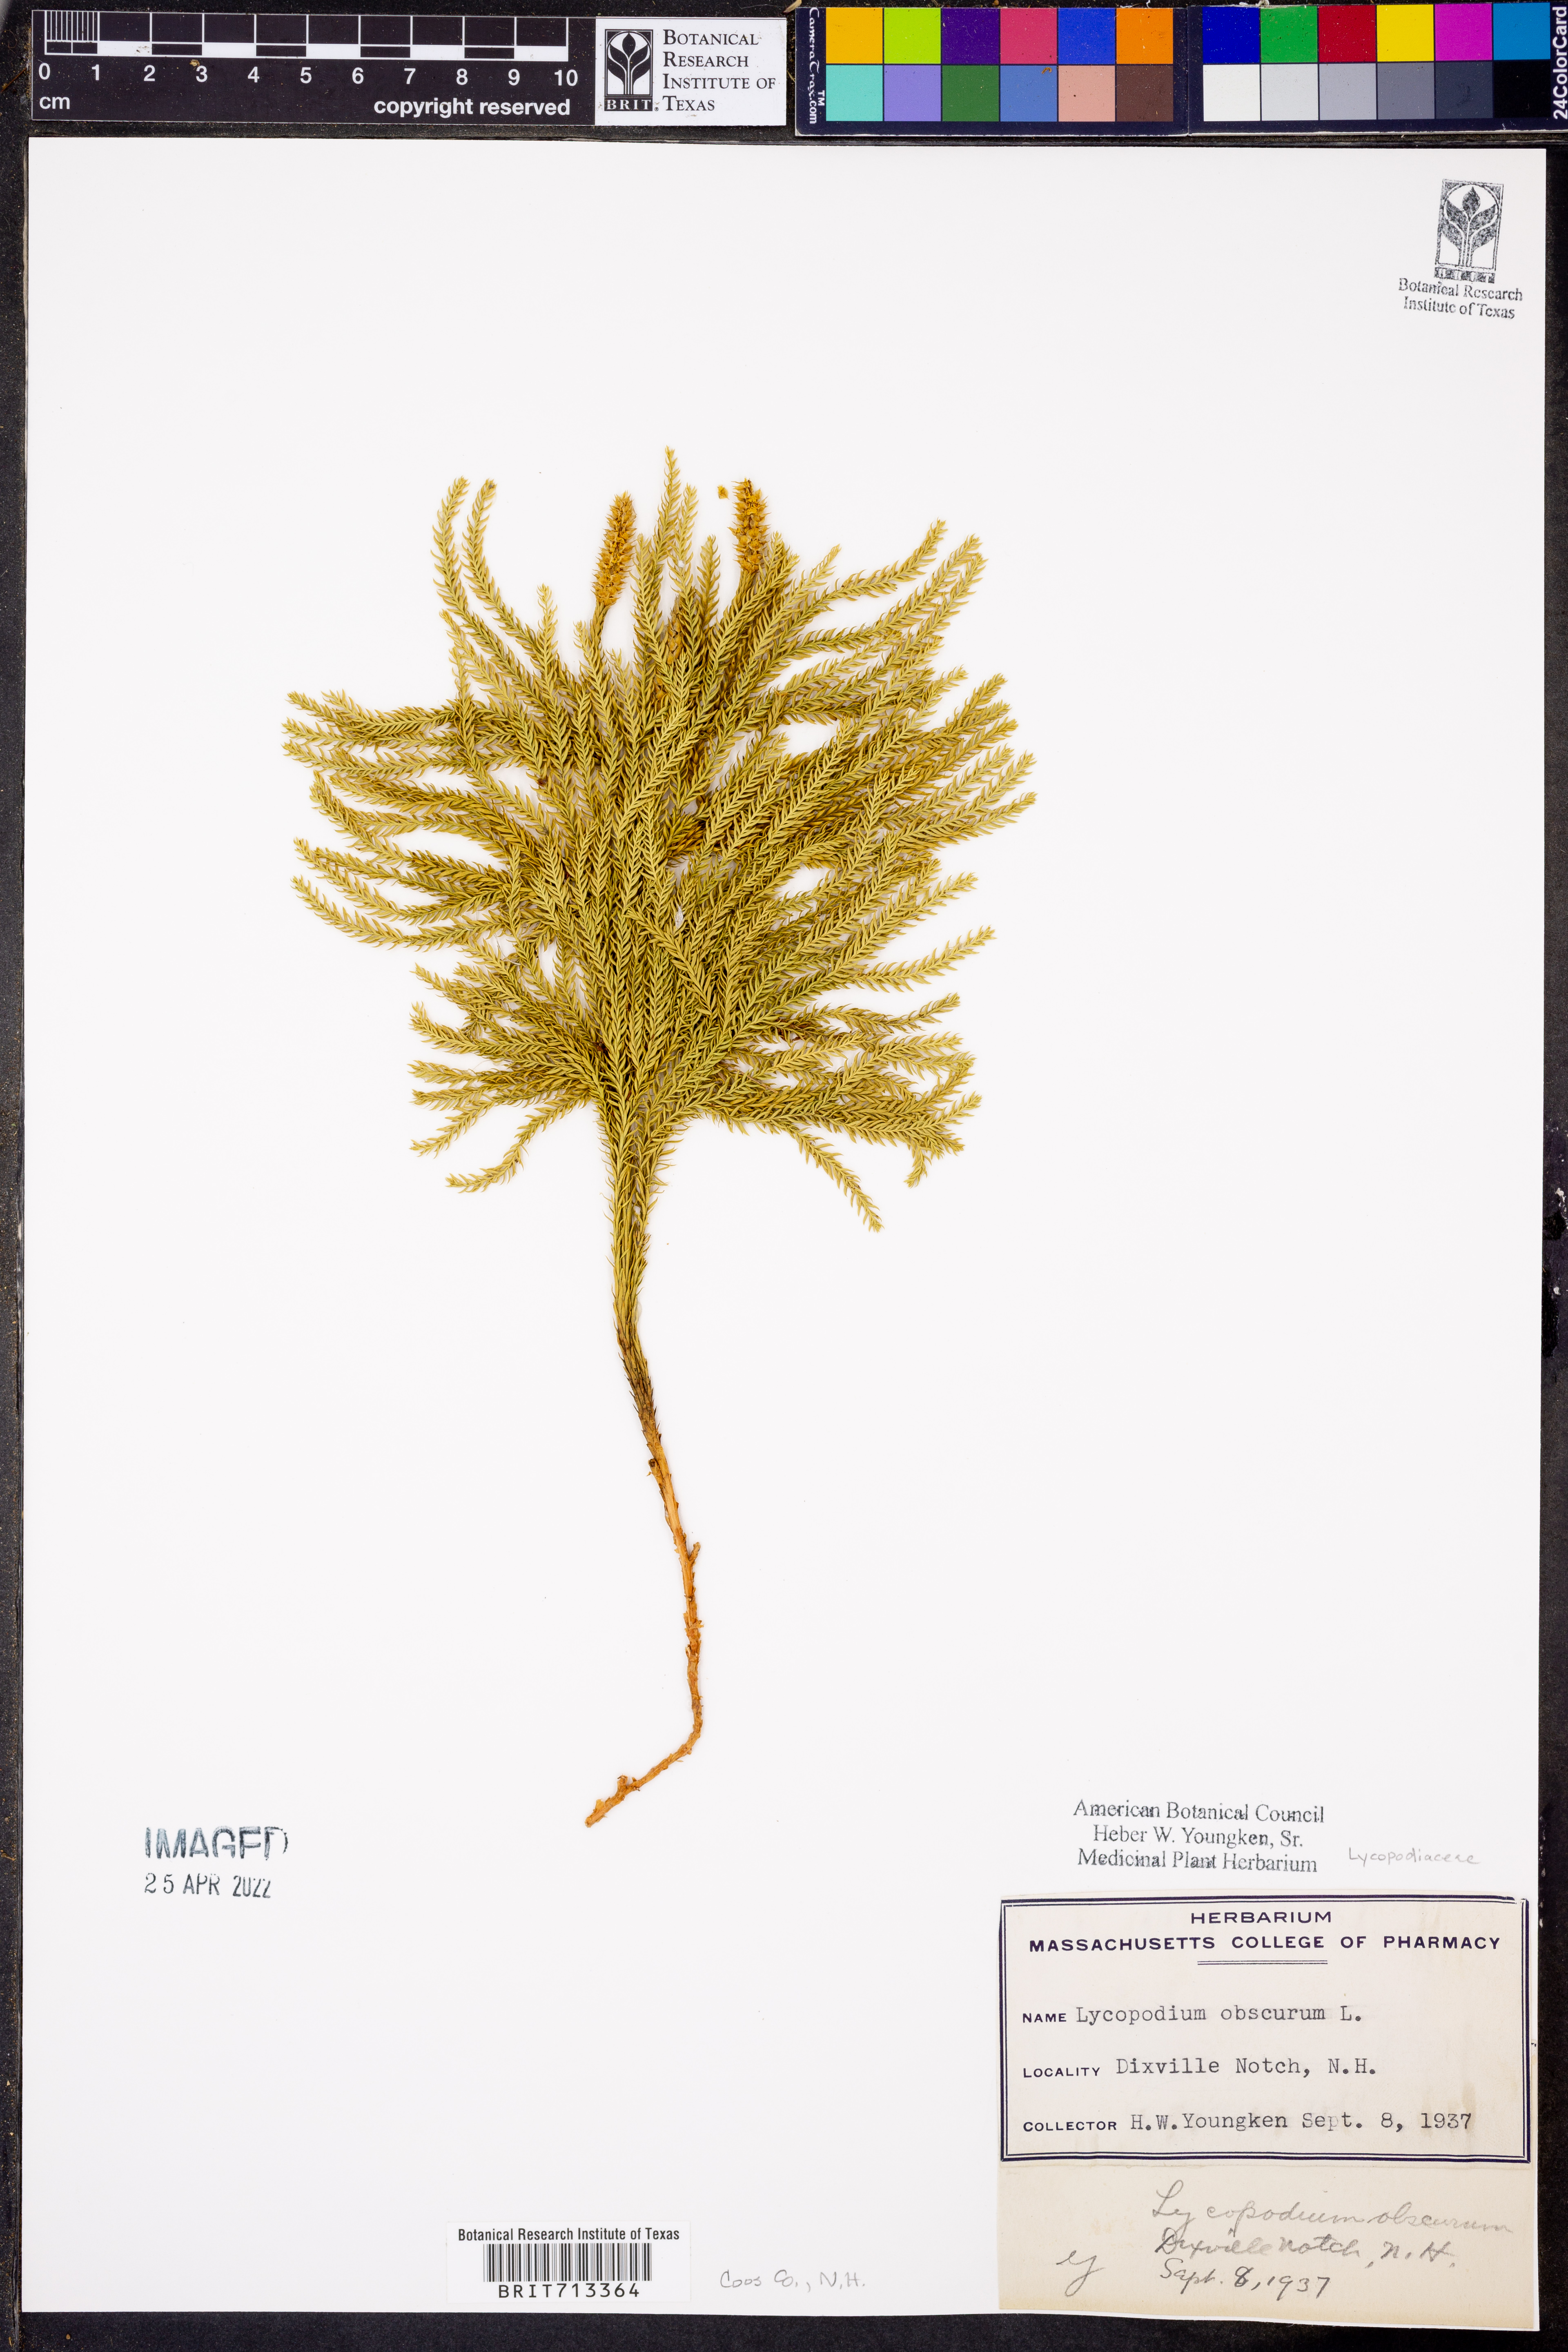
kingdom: Plantae
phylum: Tracheophyta
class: Lycopodiopsida
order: Lycopodiales
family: Lycopodiaceae
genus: Dendrolycopodium
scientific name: Dendrolycopodium obscurum
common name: Common ground-pine
